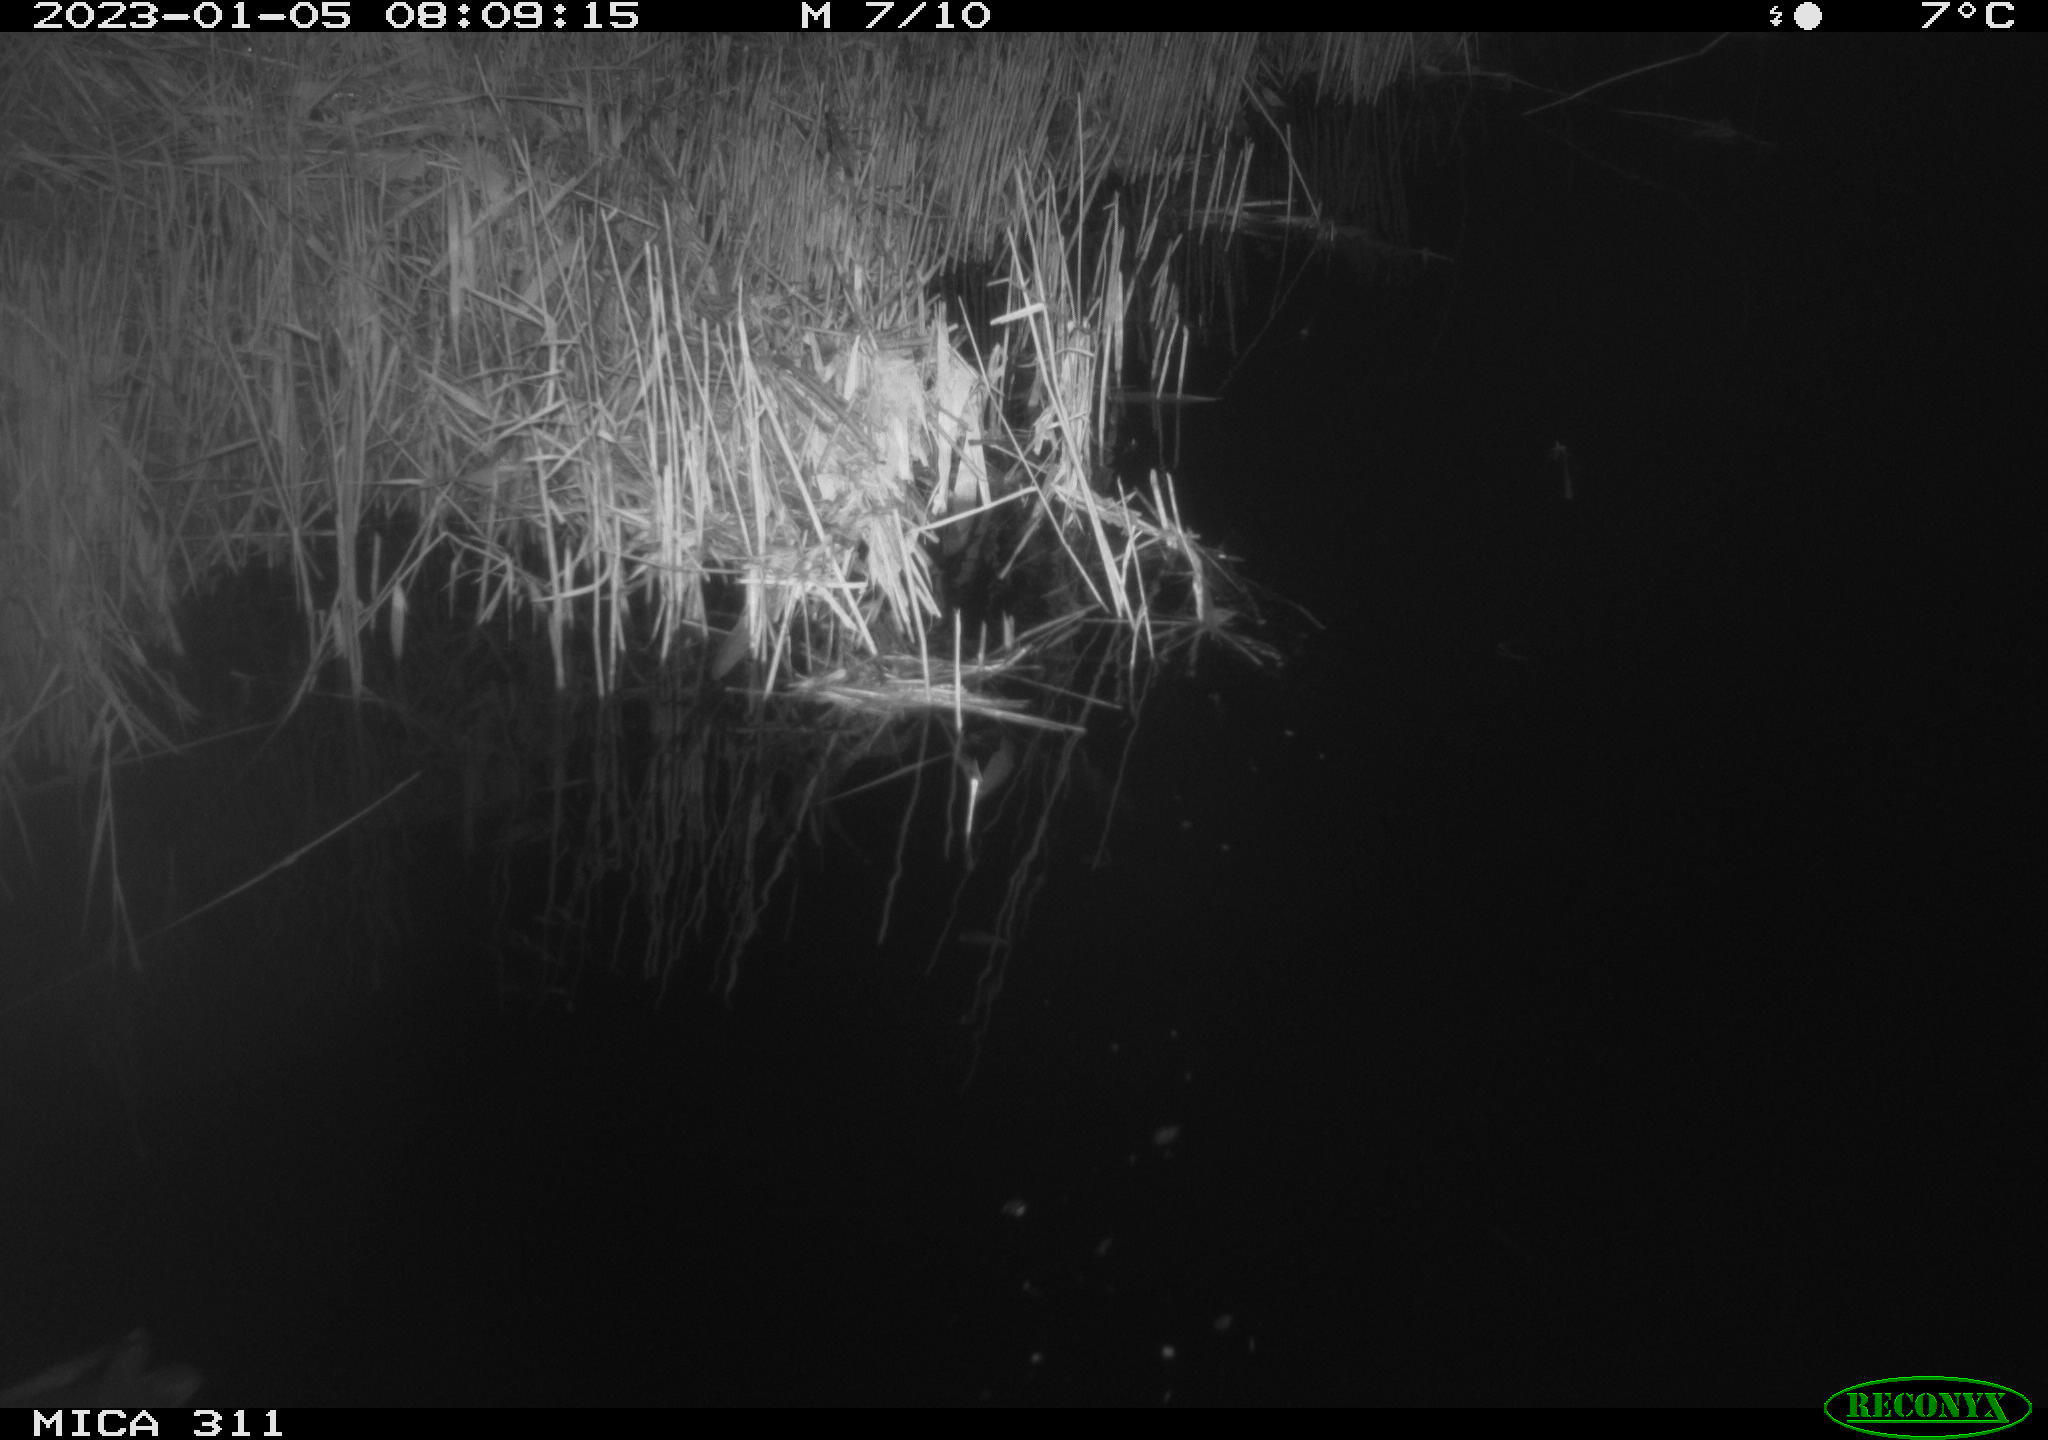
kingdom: Animalia
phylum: Chordata
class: Aves
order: Gruiformes
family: Rallidae
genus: Gallinula
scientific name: Gallinula chloropus
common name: Common moorhen
